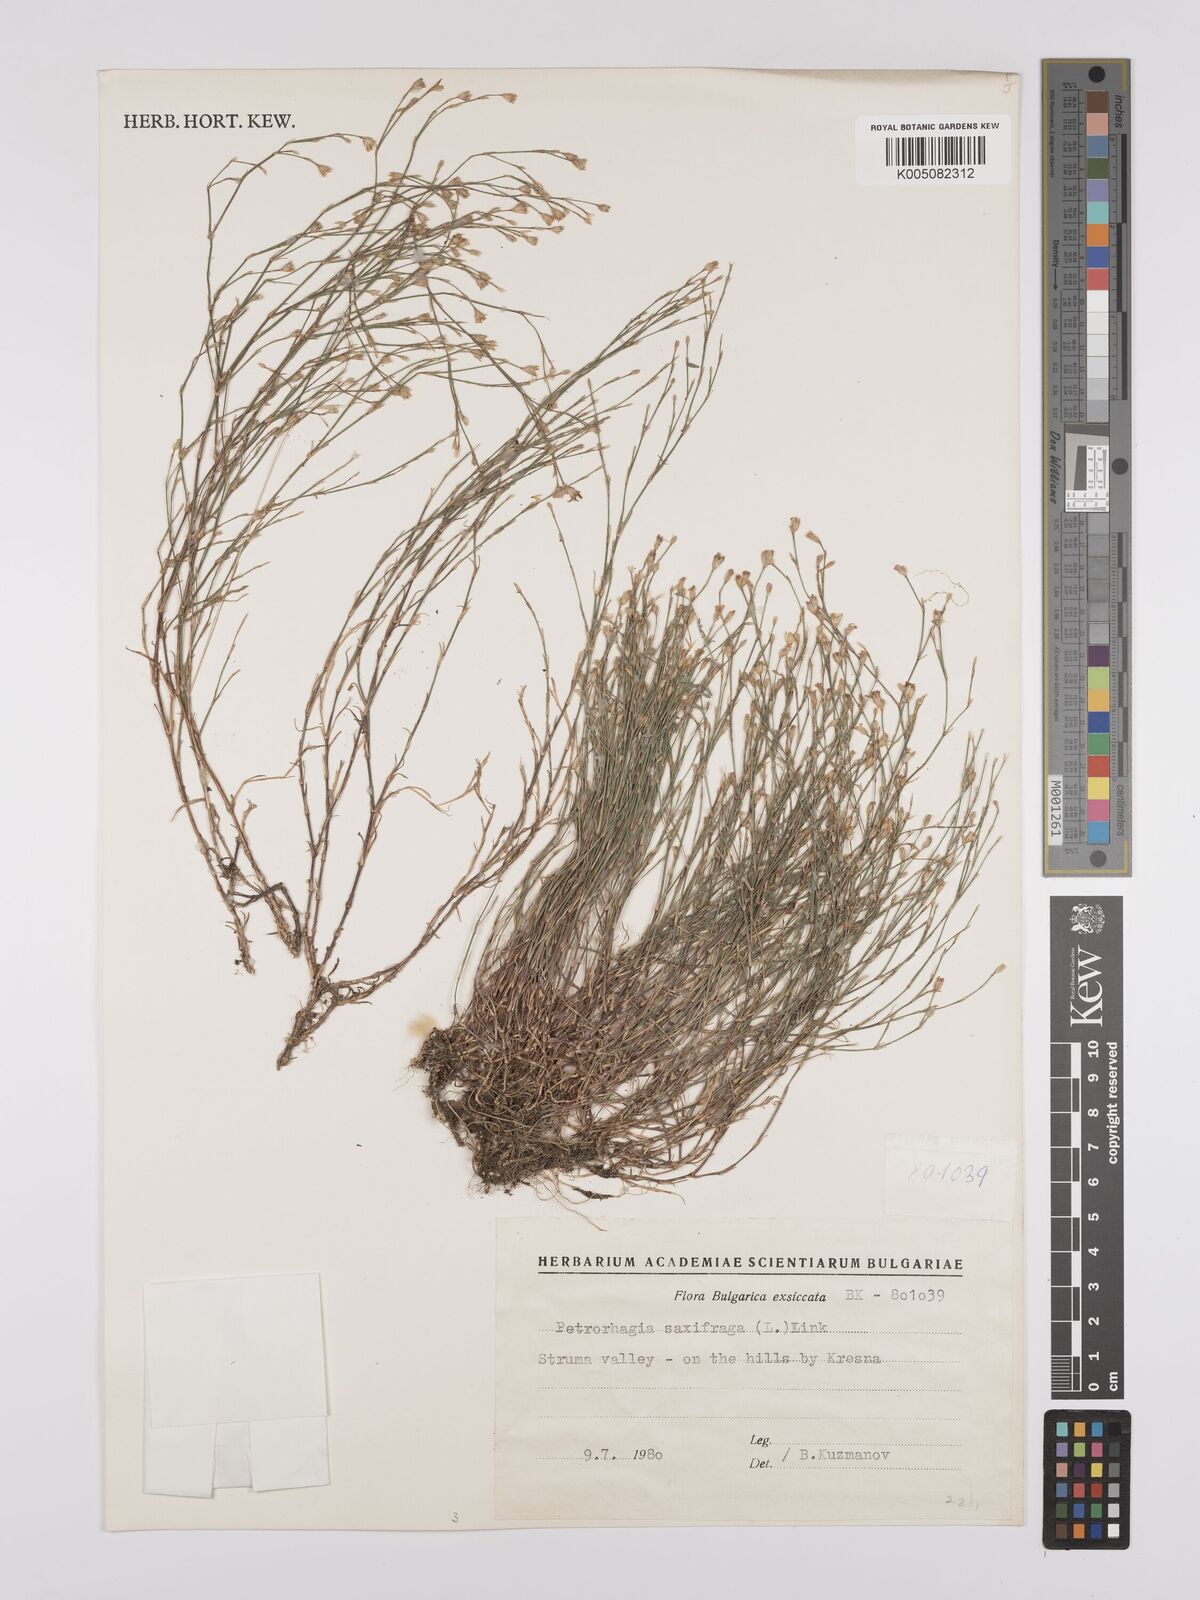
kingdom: Plantae
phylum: Tracheophyta
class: Magnoliopsida
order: Caryophyllales
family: Caryophyllaceae
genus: Petrorhagia
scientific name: Petrorhagia saxifraga
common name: Tunicflower
